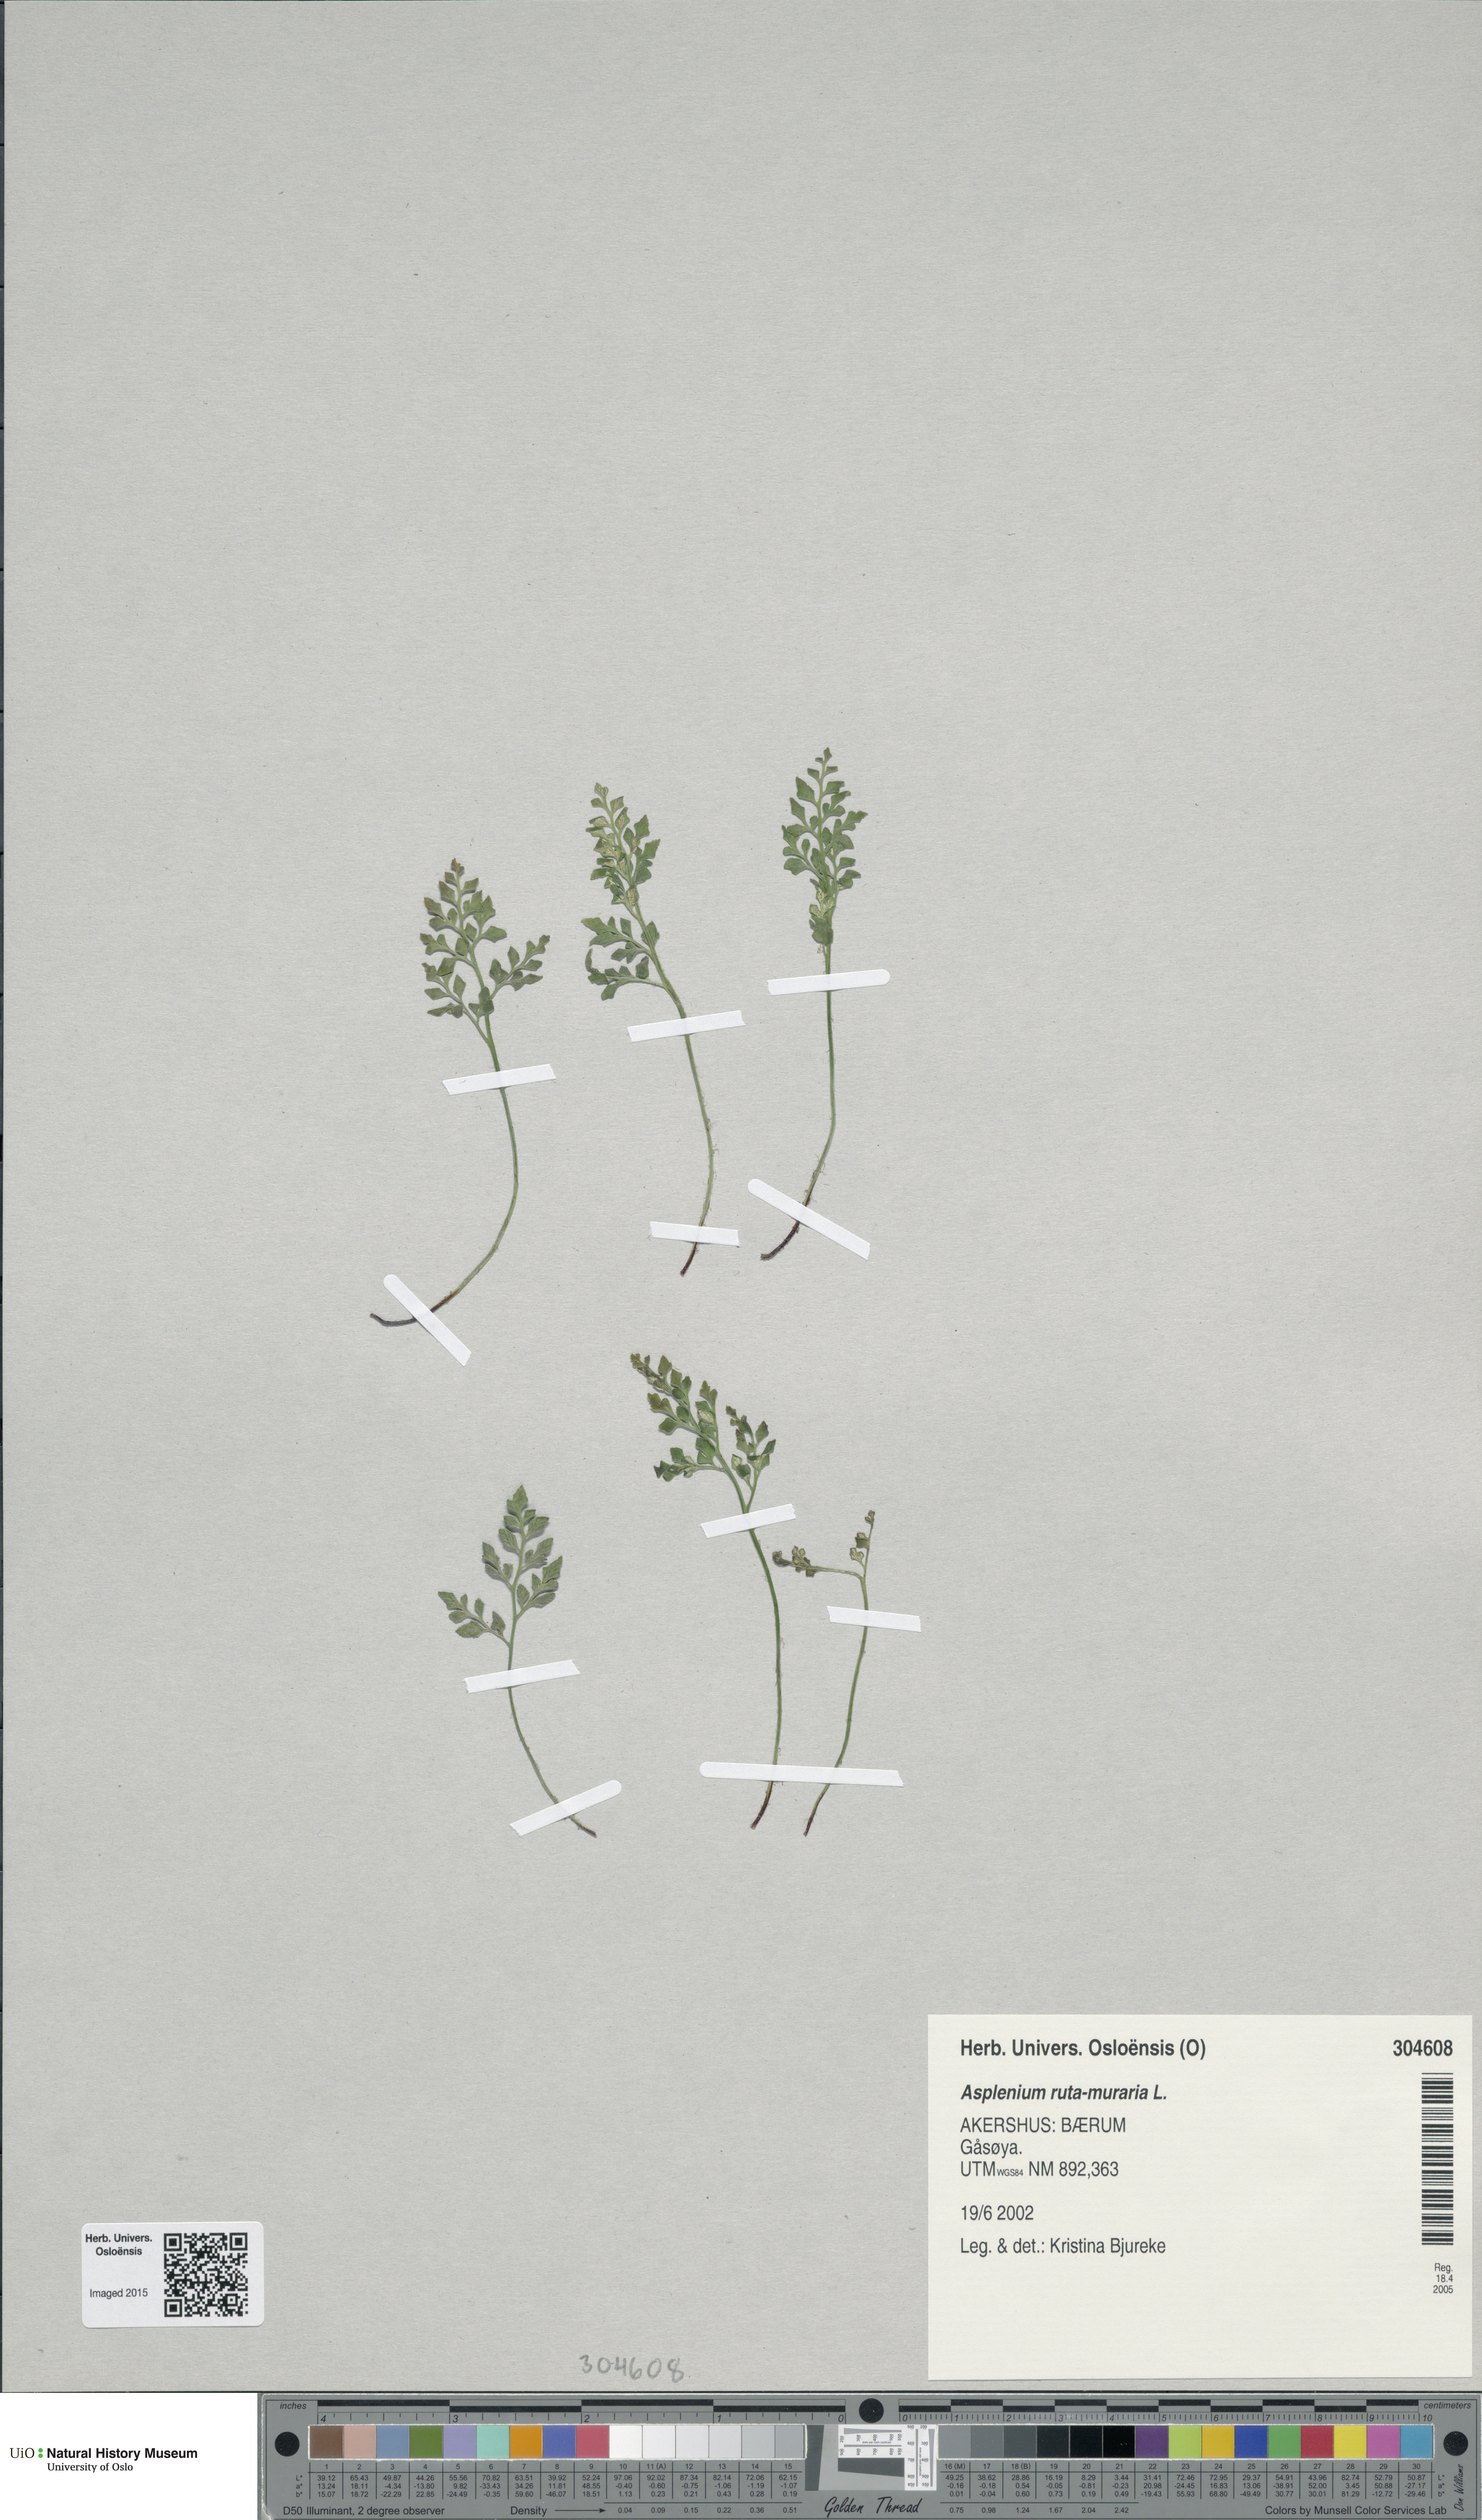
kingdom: Plantae
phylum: Tracheophyta
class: Polypodiopsida
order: Polypodiales
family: Aspleniaceae
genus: Asplenium
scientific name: Asplenium ruta-muraria
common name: Wall-rue
